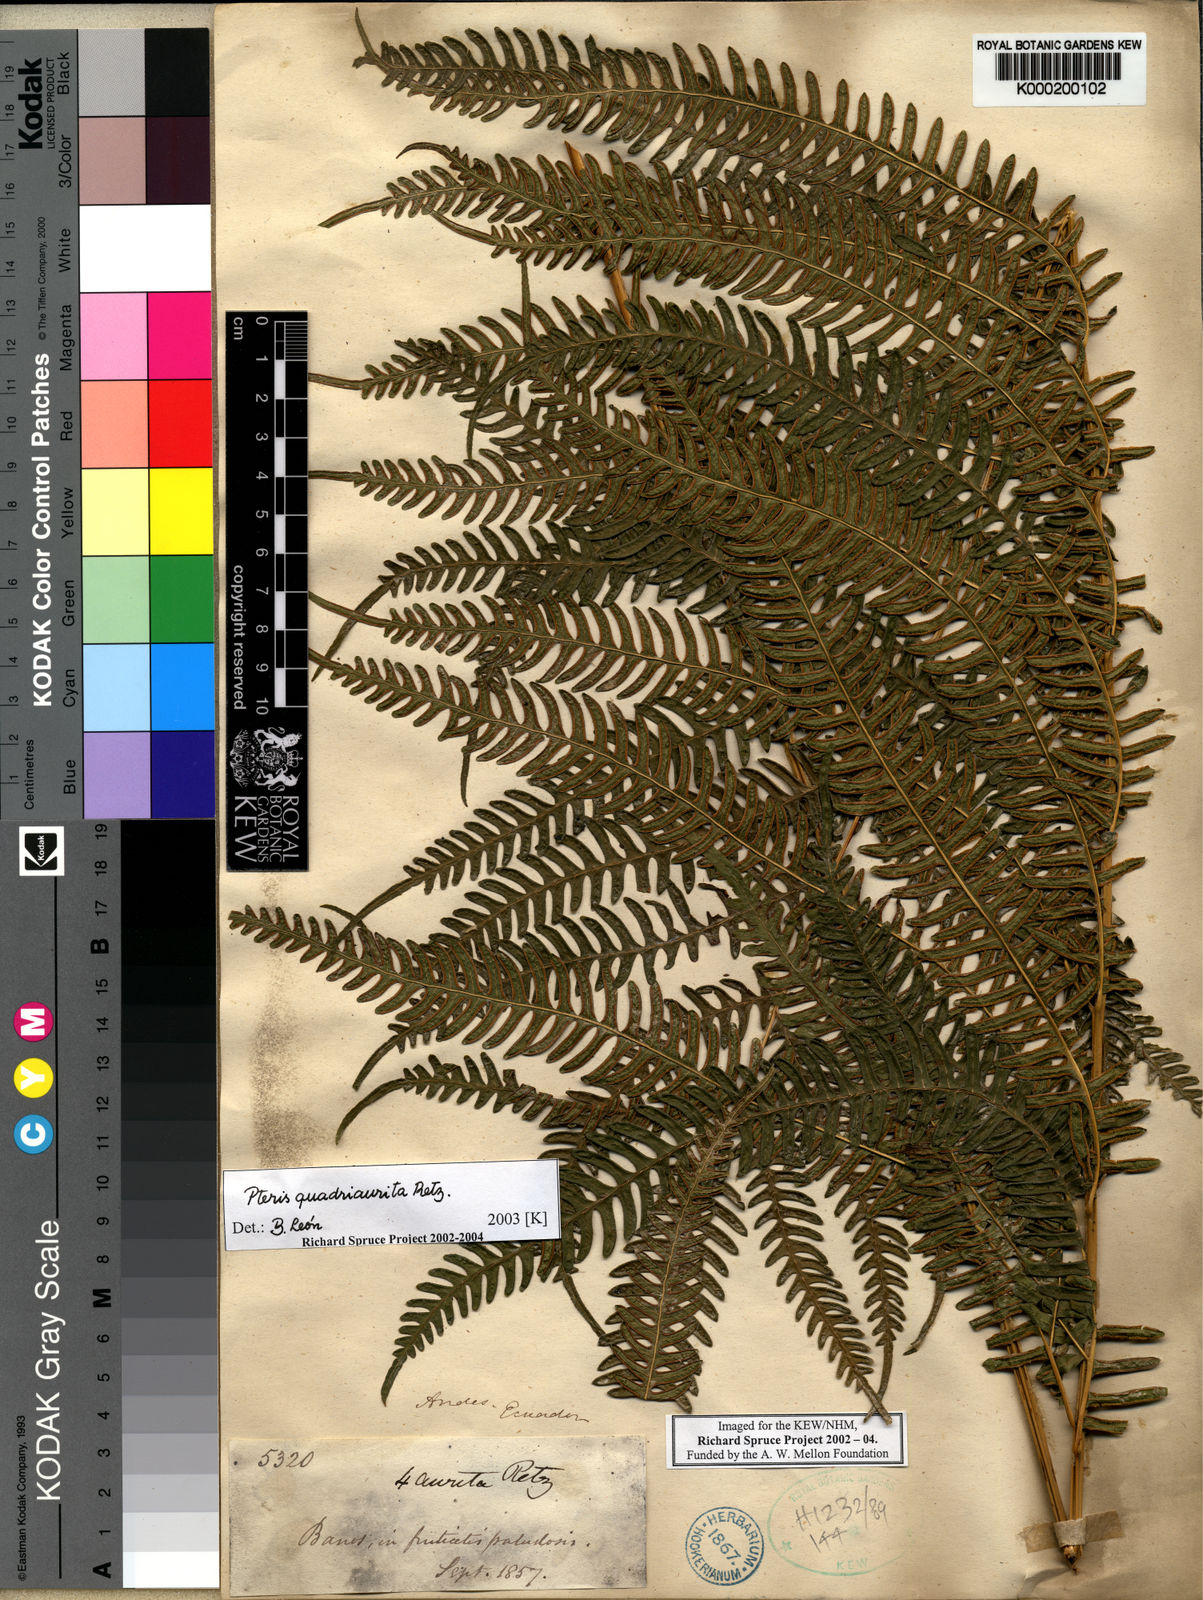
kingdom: Plantae
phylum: Tracheophyta
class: Polypodiopsida
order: Polypodiales
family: Pteridaceae
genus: Pteris
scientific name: Pteris quadriaurita
